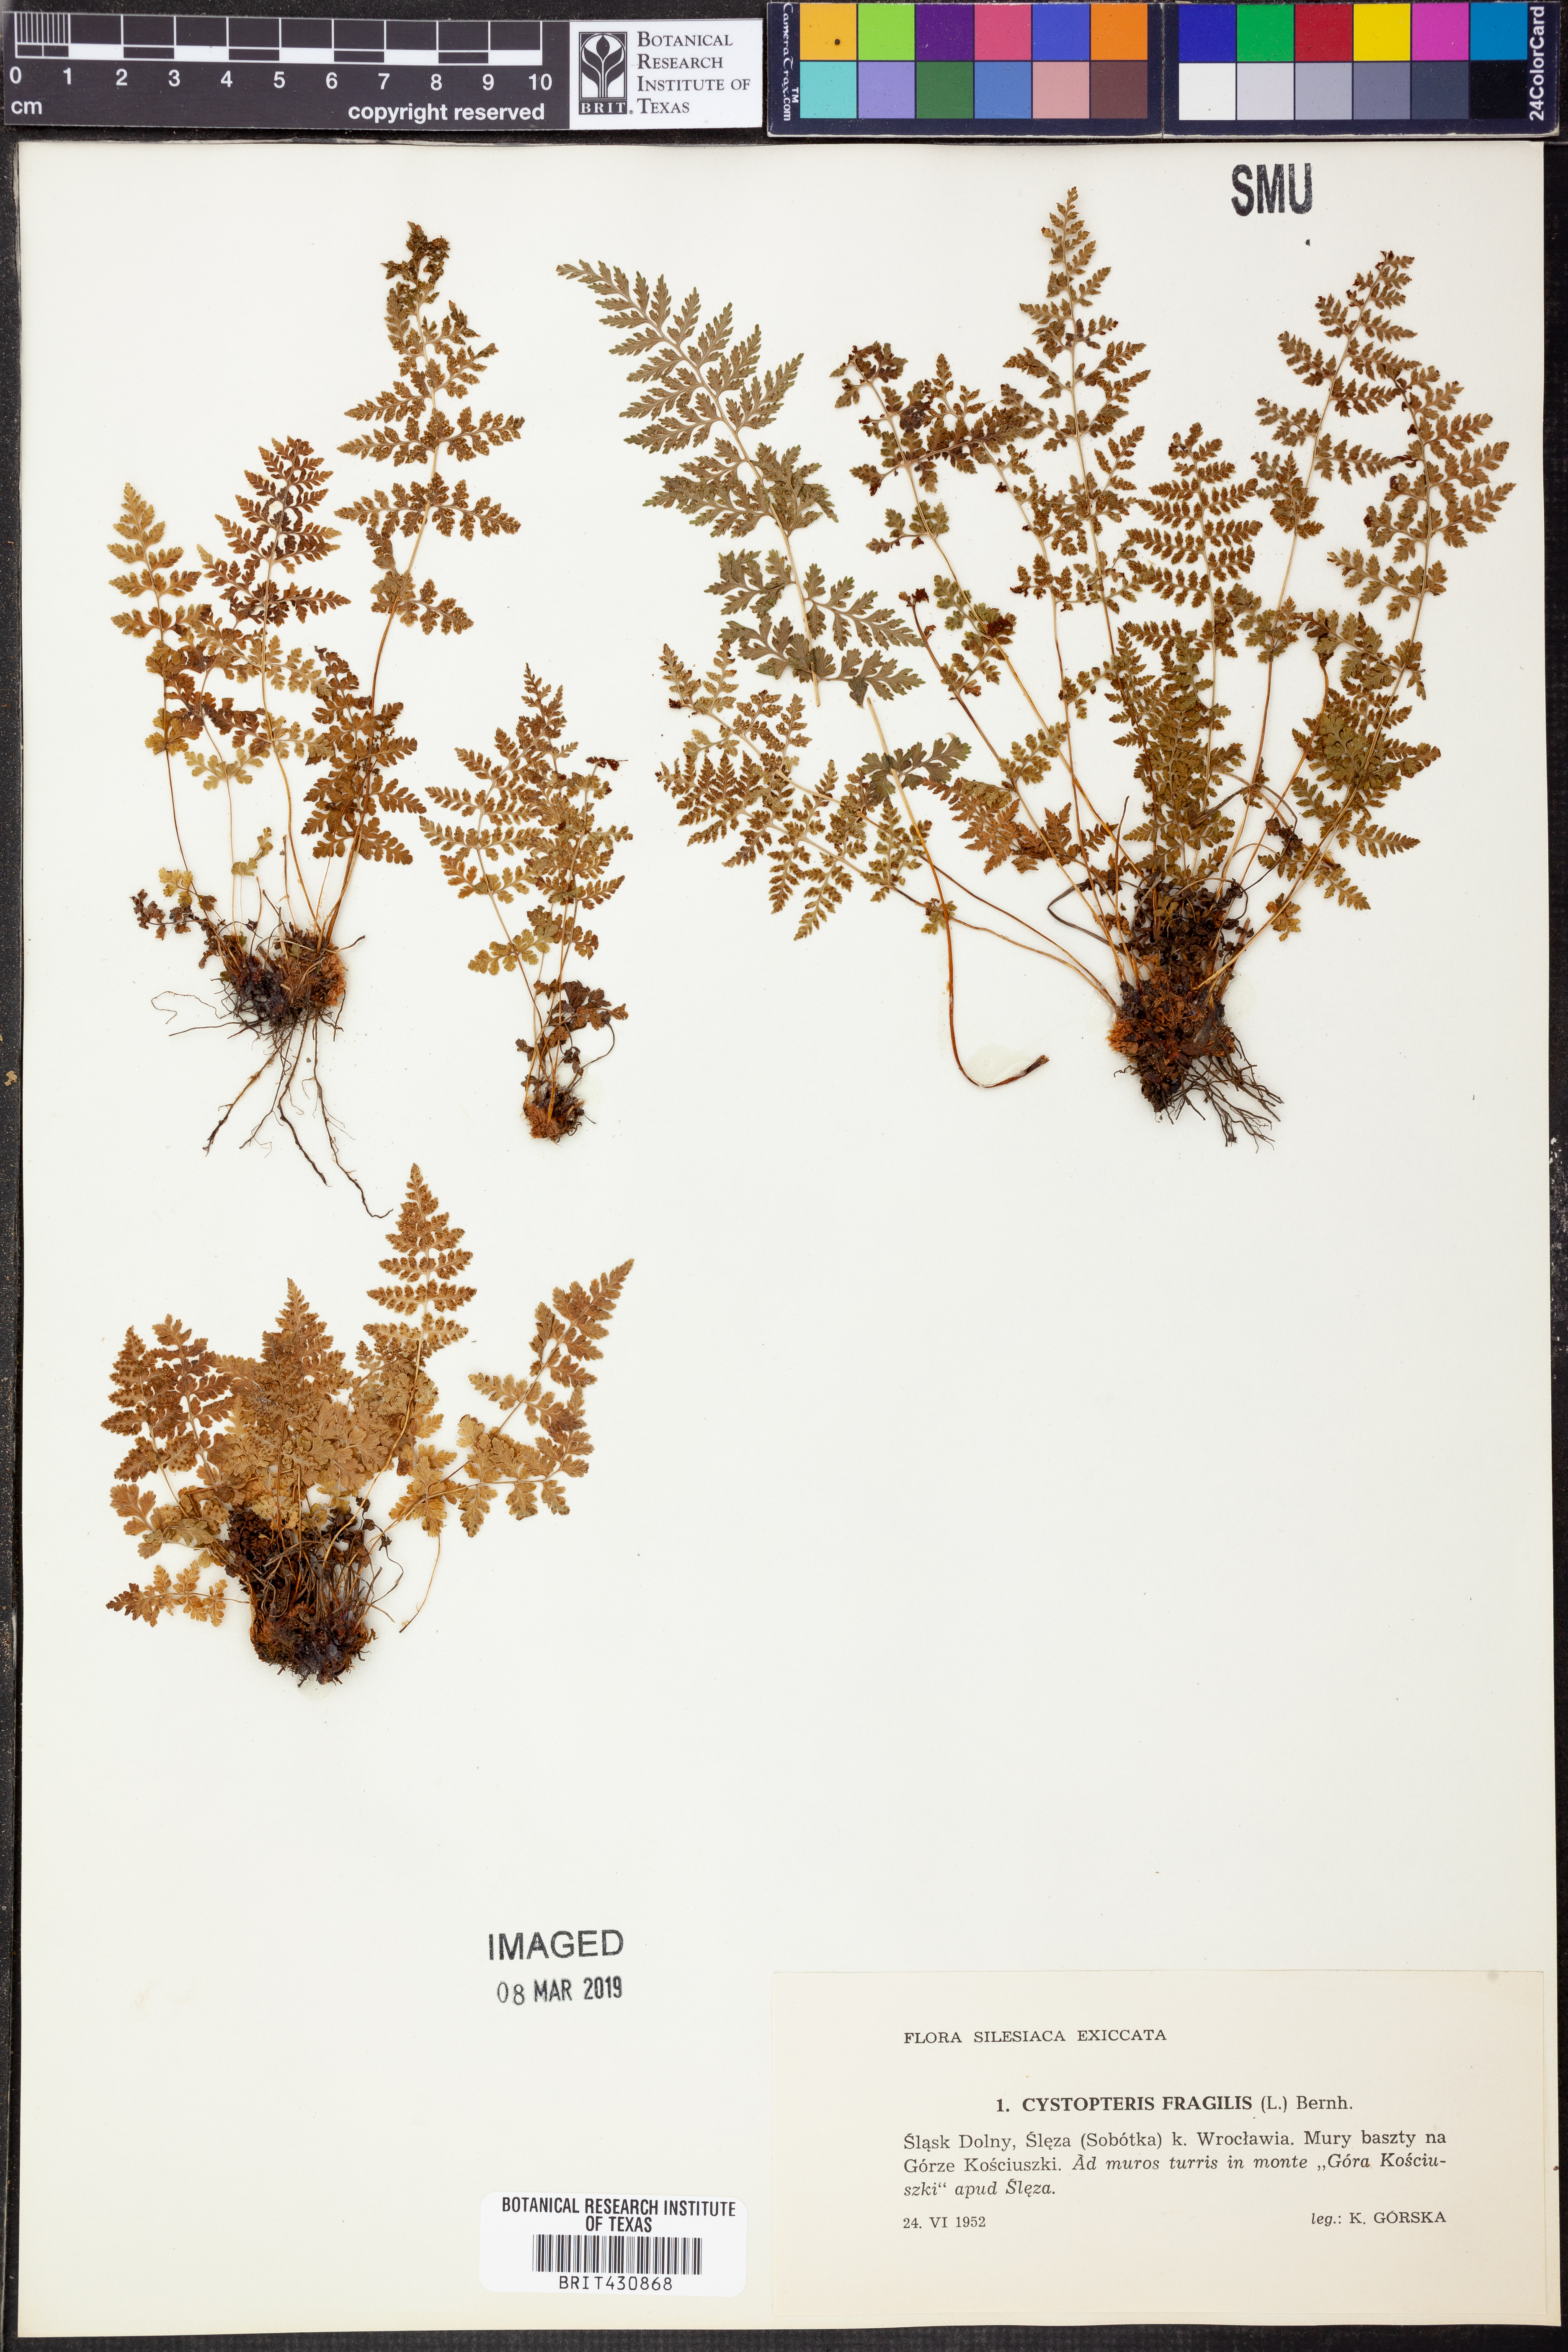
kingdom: Plantae
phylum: Tracheophyta
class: Polypodiopsida
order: Polypodiales
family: Cystopteridaceae
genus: Cystopteris
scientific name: Cystopteris fragilis
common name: Brittle bladder fern
